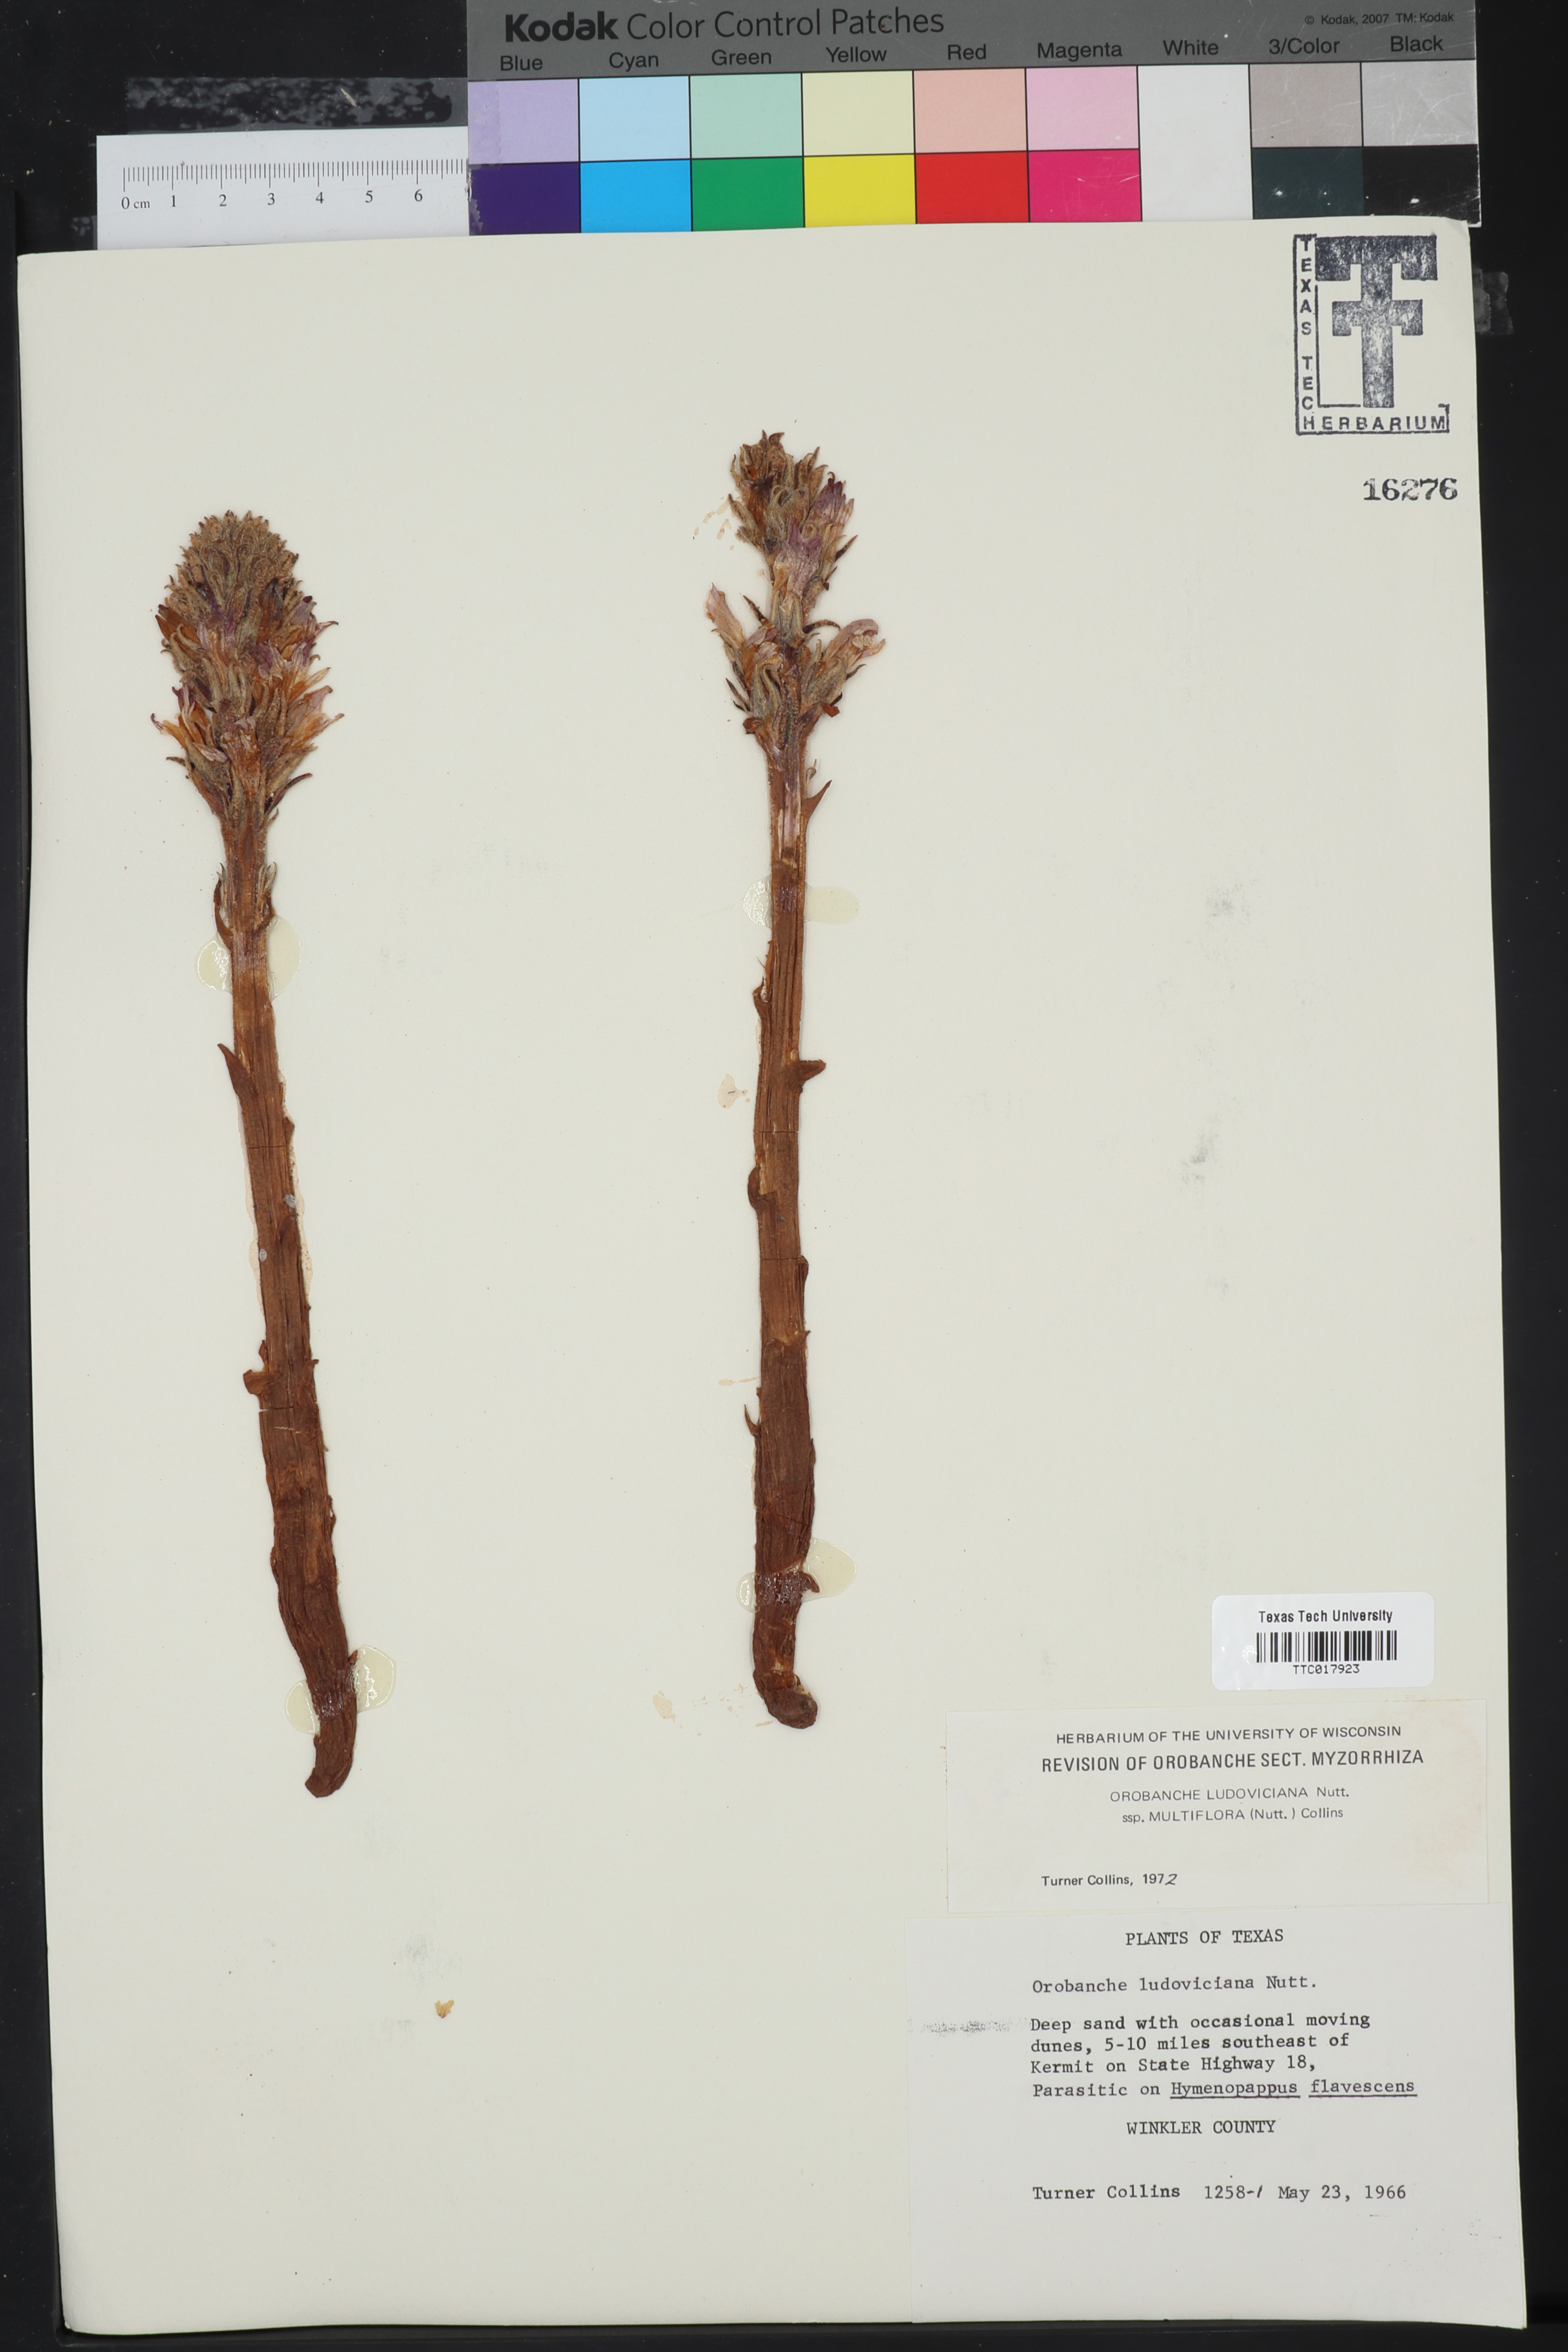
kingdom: Plantae
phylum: Tracheophyta
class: Magnoliopsida
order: Lamiales
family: Orobanchaceae
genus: Aphyllon
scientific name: Aphyllon multiflorum
